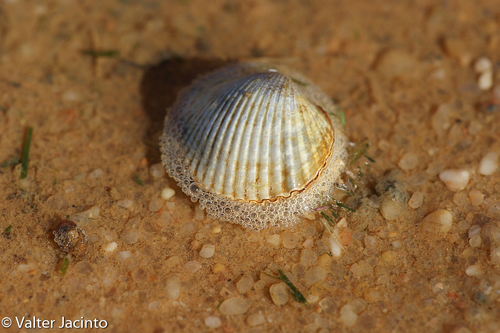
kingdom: Animalia
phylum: Mollusca
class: Bivalvia
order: Cardiida
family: Cardiidae
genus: Cerastoderma
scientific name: Cerastoderma edule
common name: Common cockle
